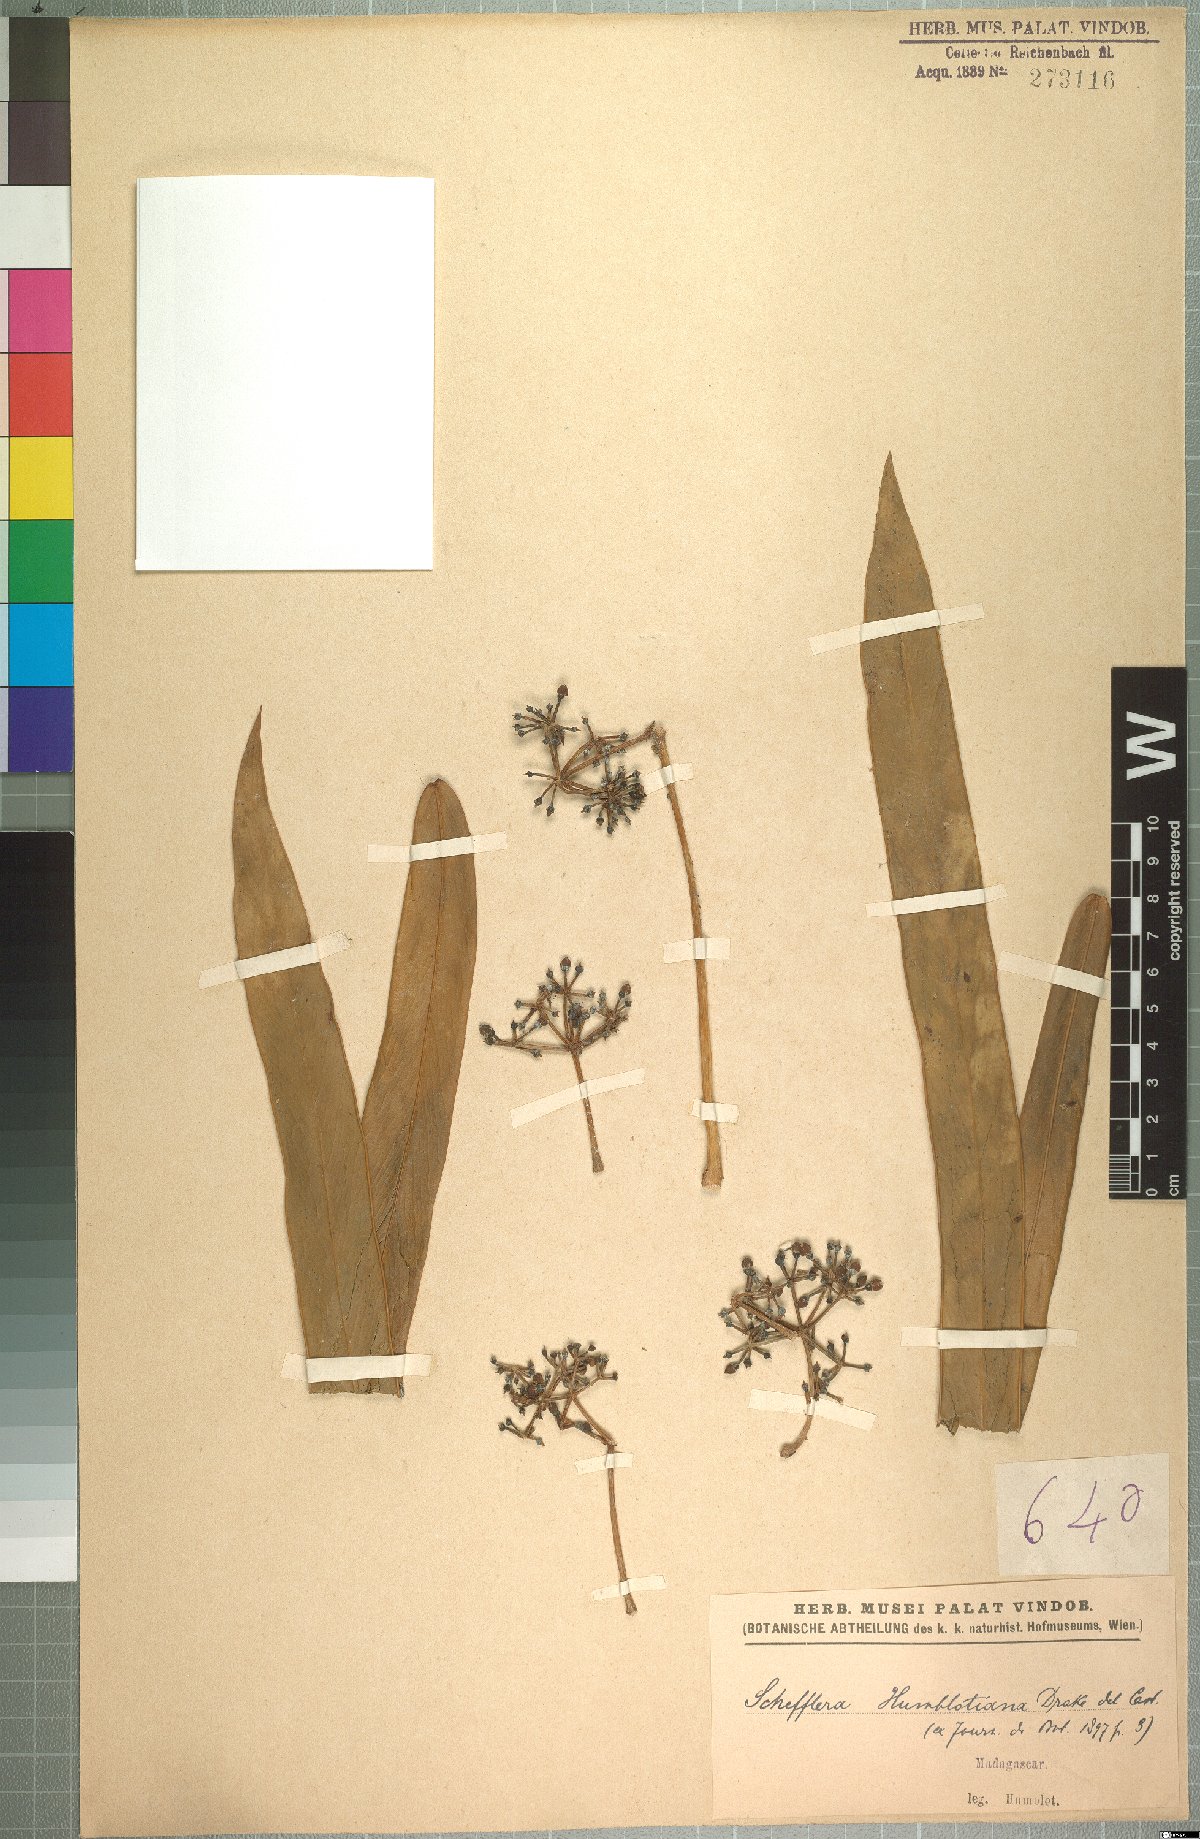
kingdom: Plantae
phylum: Tracheophyta
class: Magnoliopsida
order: Apiales
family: Araliaceae
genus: Astropanax
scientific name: Astropanax humblotianus
